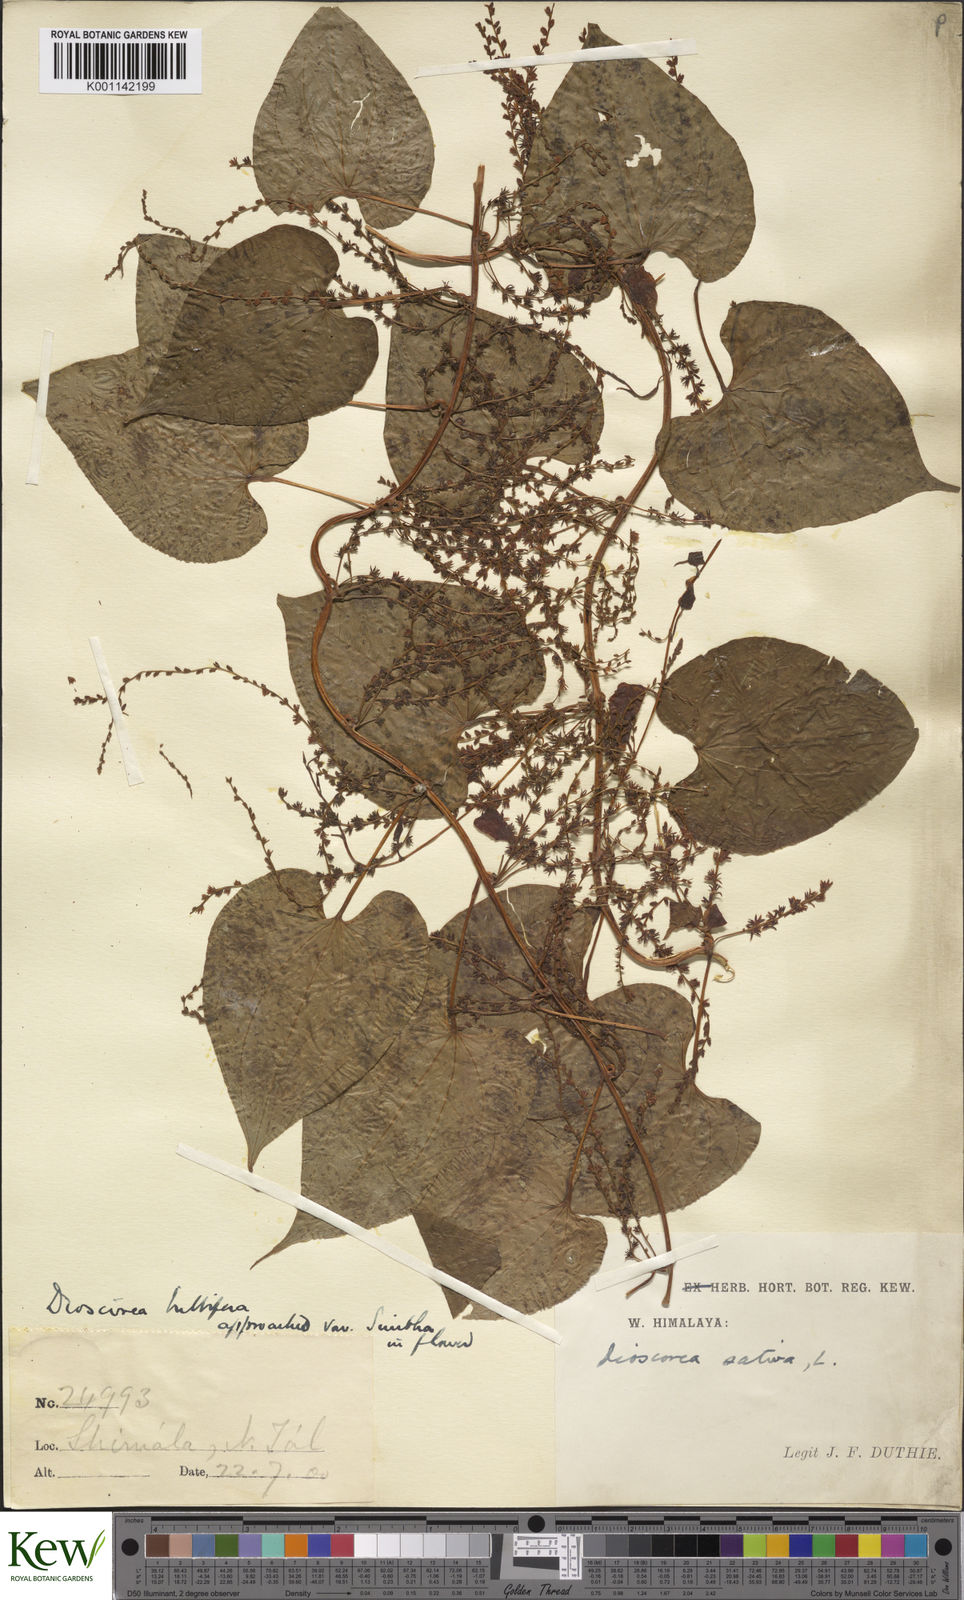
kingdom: Plantae
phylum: Tracheophyta
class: Liliopsida
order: Dioscoreales
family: Dioscoreaceae
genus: Dioscorea
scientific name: Dioscorea bulbifera
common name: Air yam
